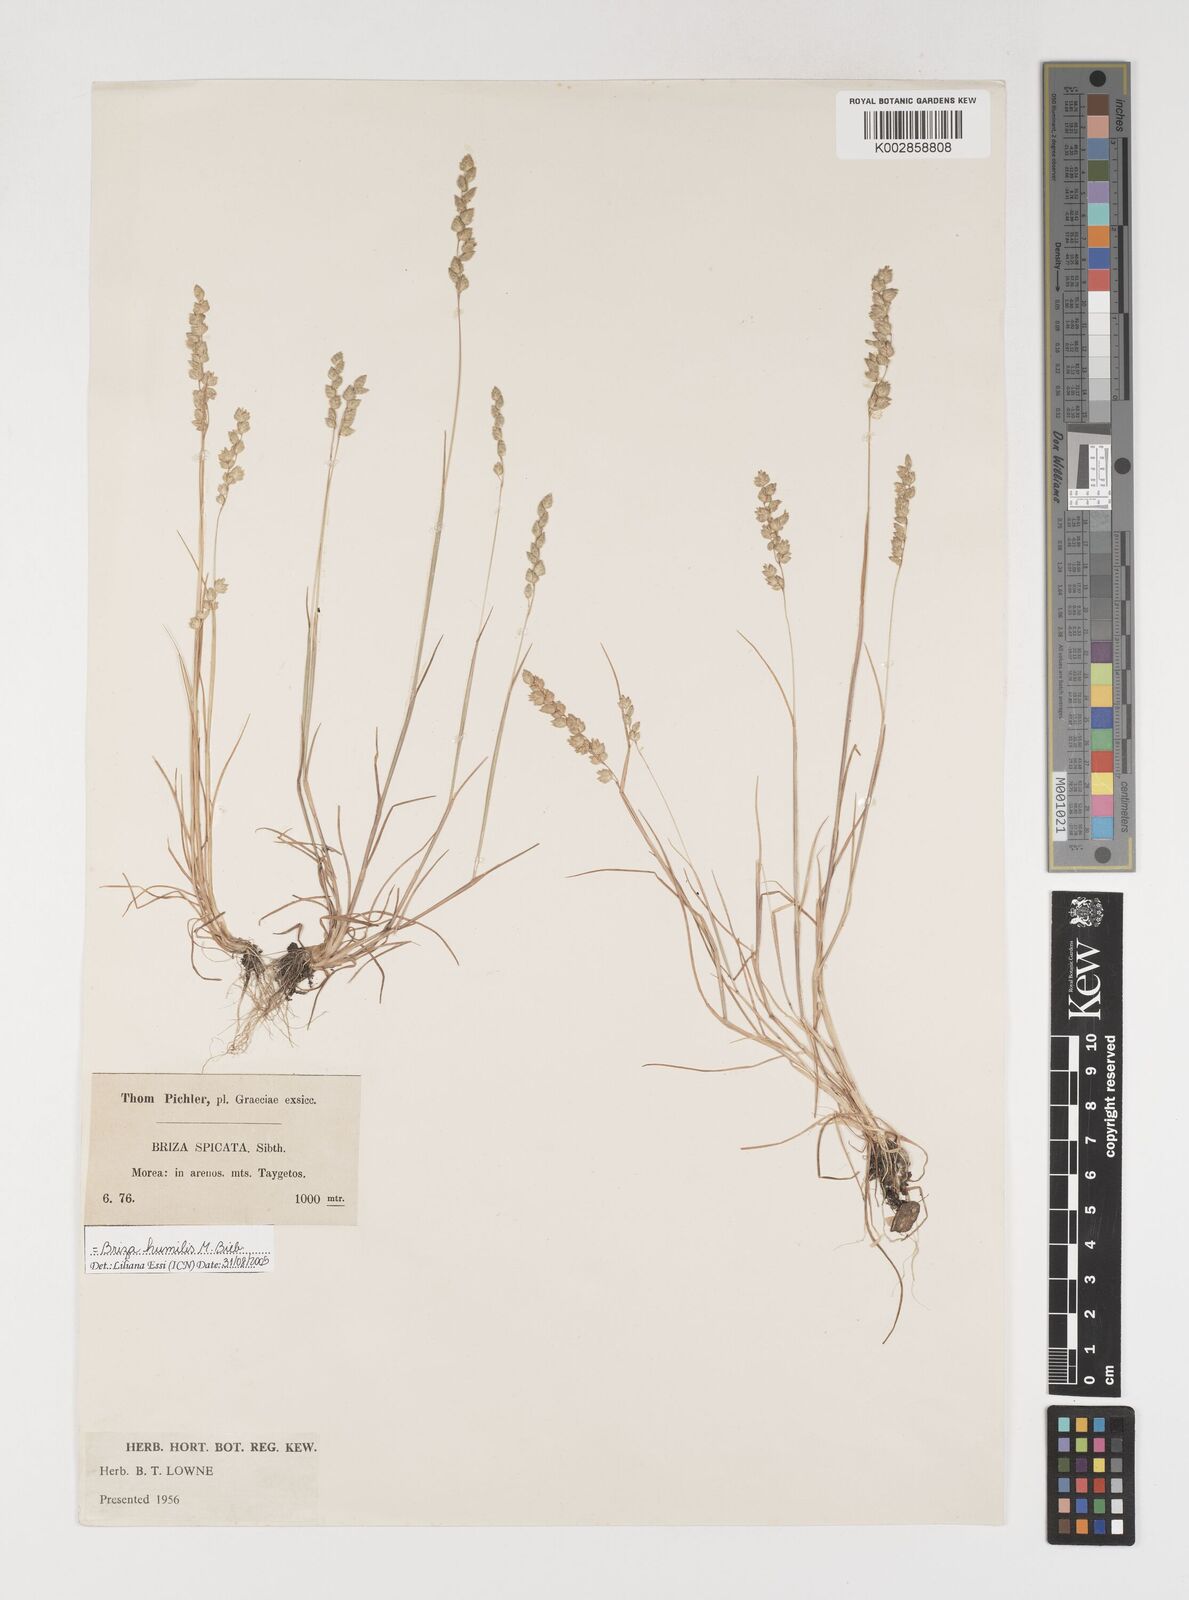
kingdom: Plantae
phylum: Tracheophyta
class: Liliopsida
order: Poales
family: Poaceae
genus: Briza
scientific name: Briza humilis
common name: Spiked quaking grass
